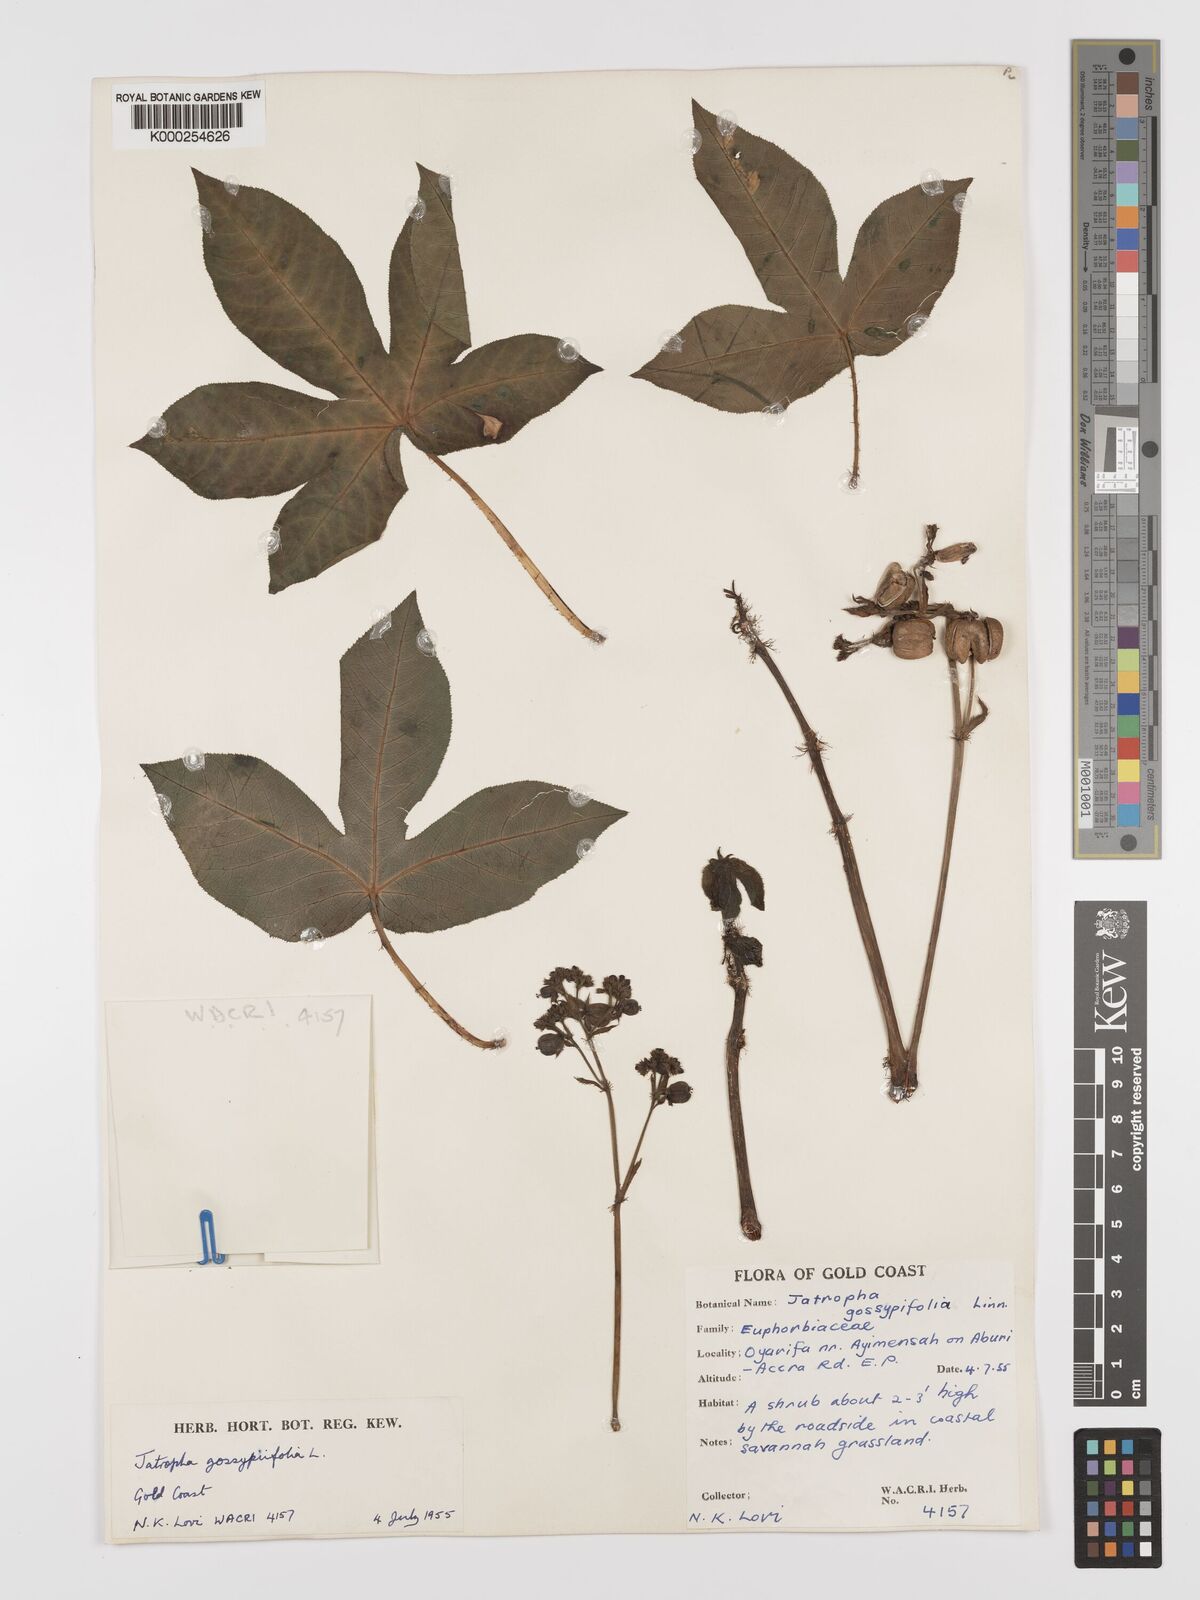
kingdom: Plantae
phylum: Tracheophyta
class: Magnoliopsida
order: Malpighiales
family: Euphorbiaceae
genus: Jatropha
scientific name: Jatropha gossypiifolia
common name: Bellyache bush
